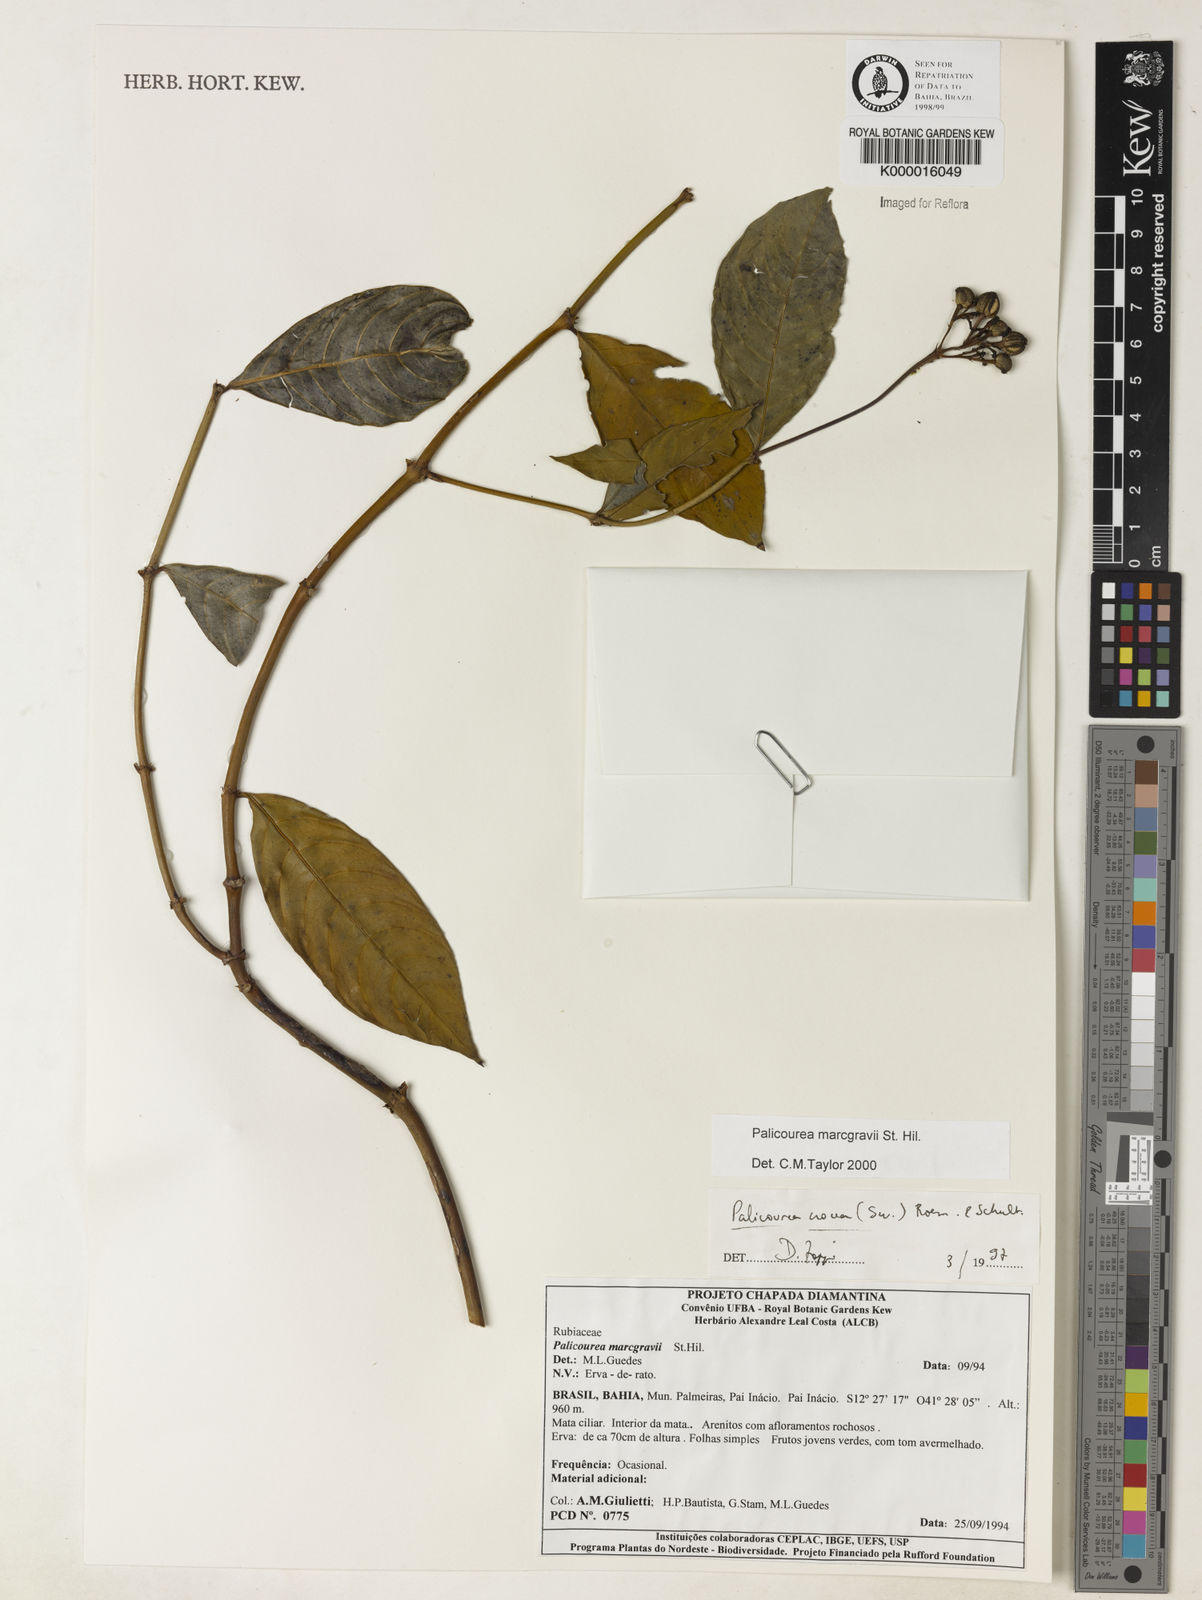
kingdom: Plantae
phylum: Tracheophyta
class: Magnoliopsida
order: Gentianales
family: Rubiaceae
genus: Palicourea
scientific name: Palicourea marcgravii
